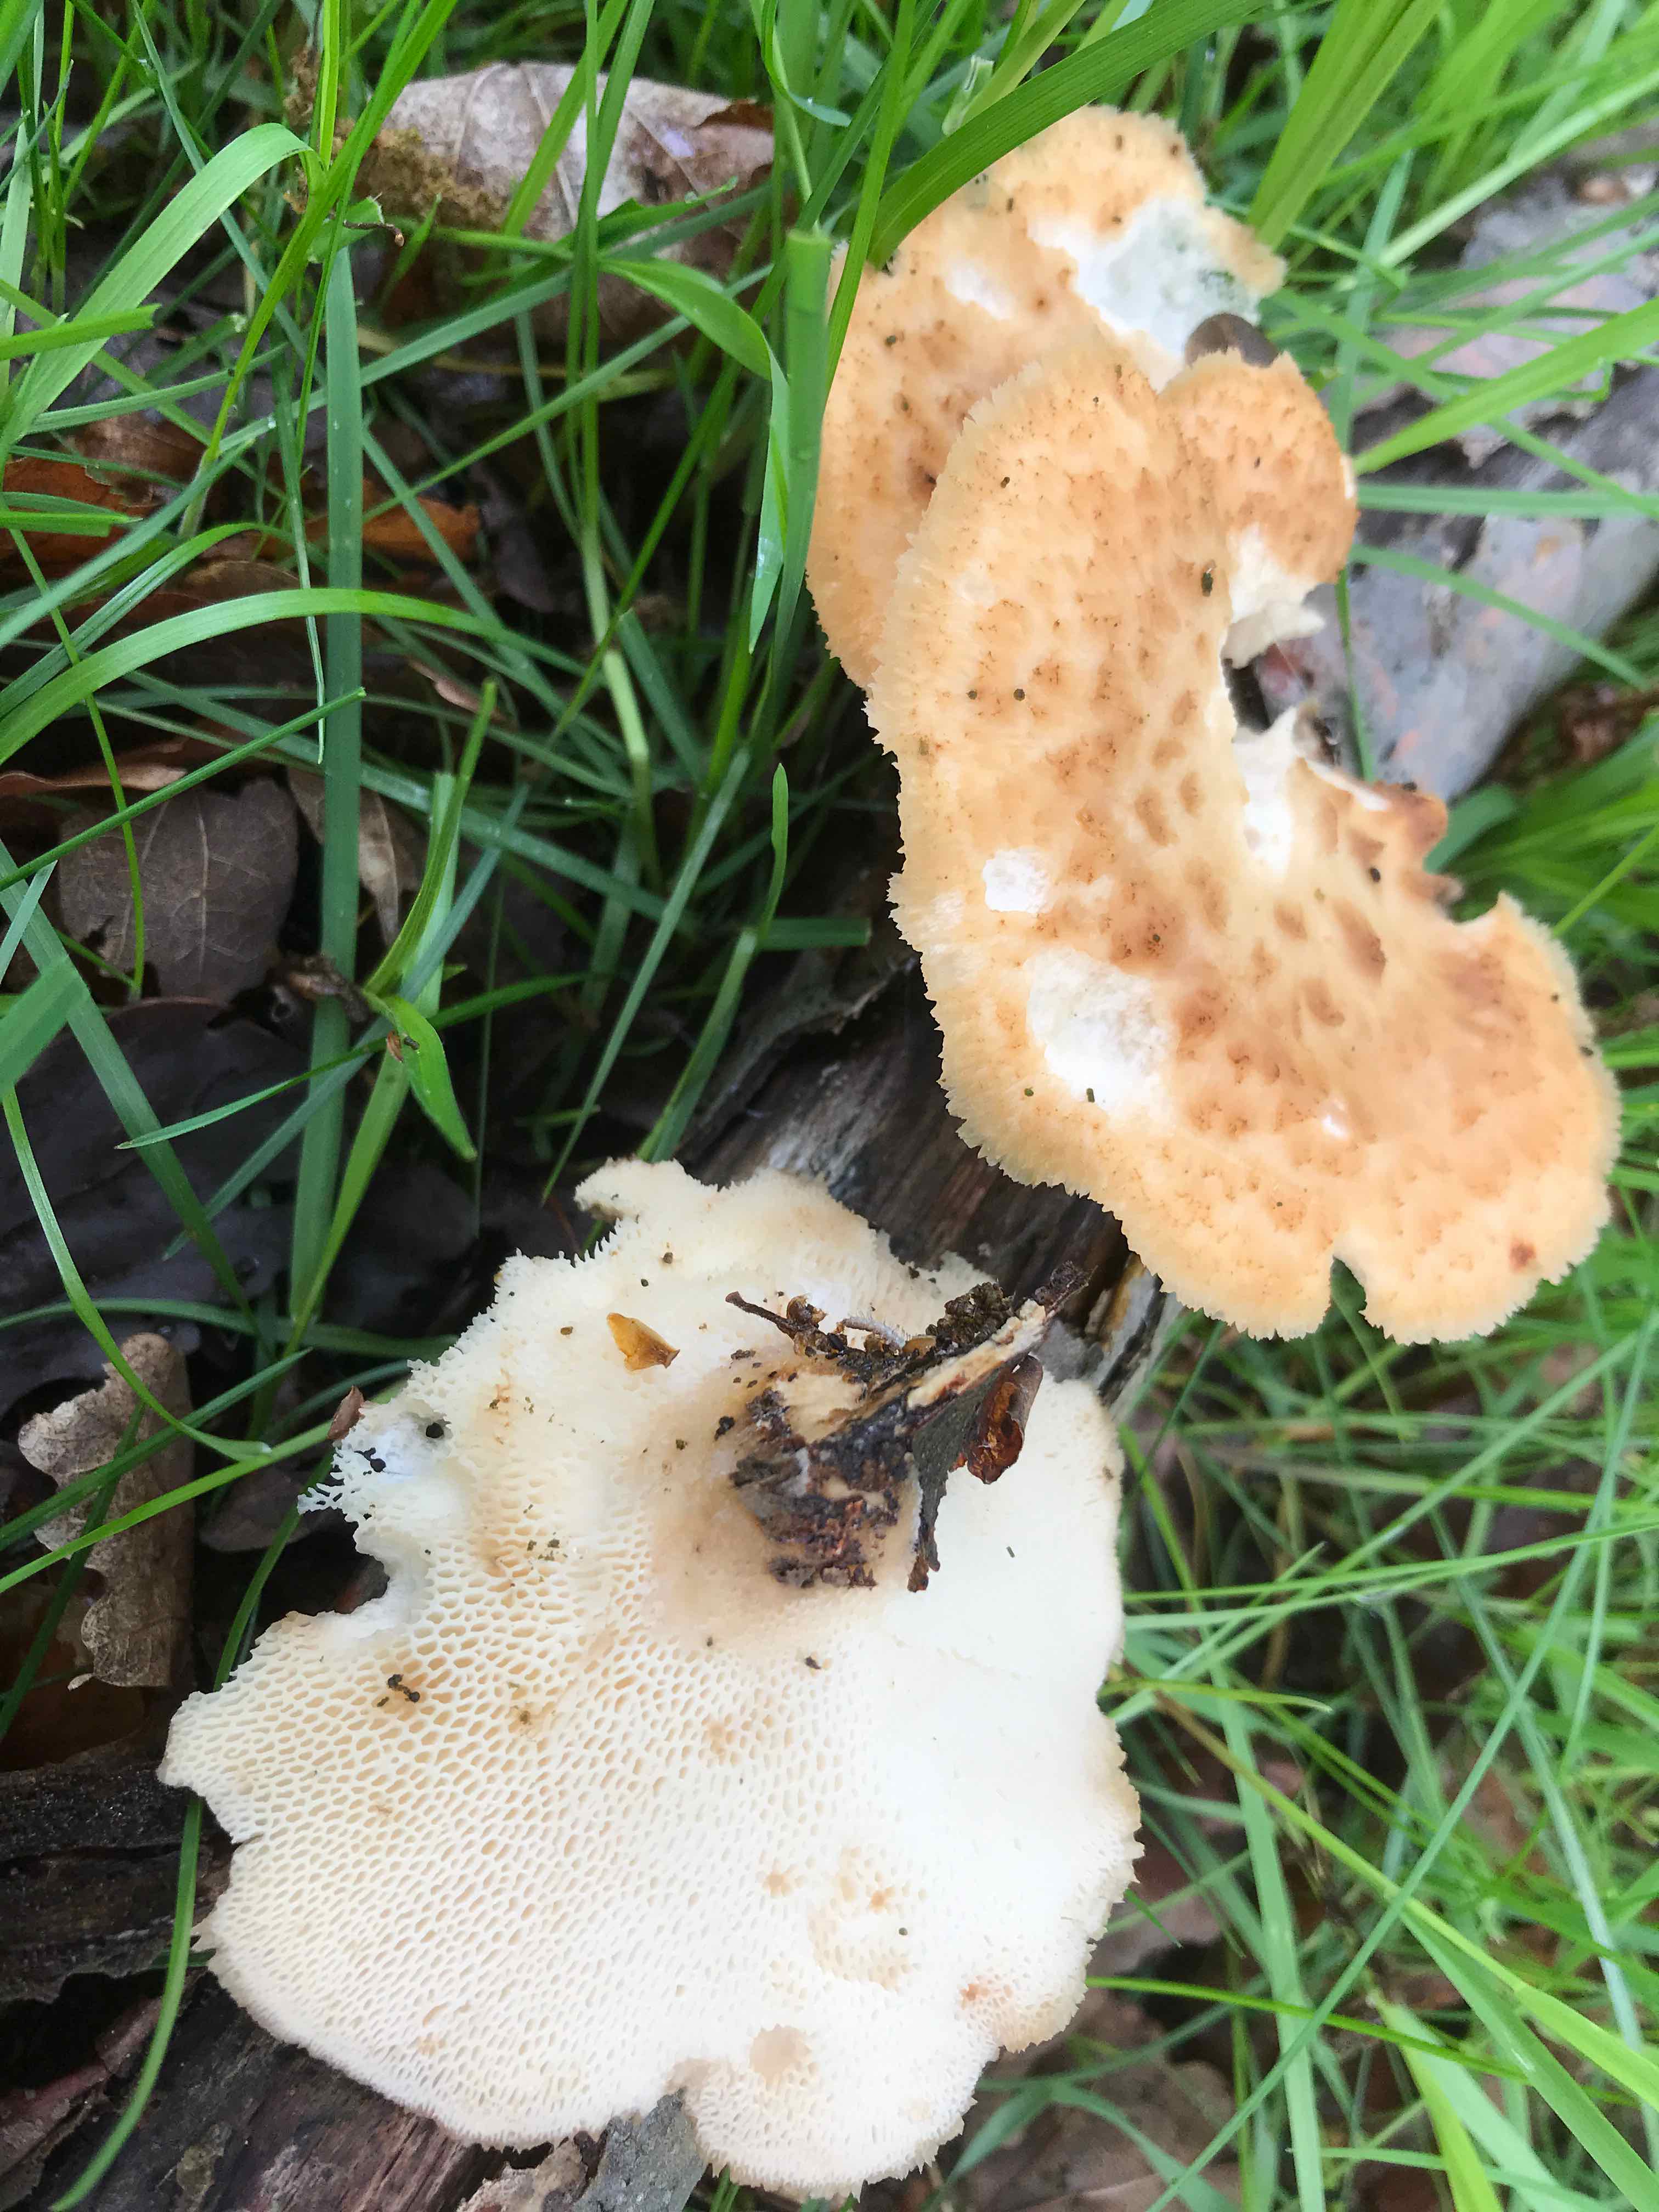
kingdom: Fungi
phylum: Basidiomycota
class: Agaricomycetes
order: Polyporales
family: Polyporaceae
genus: Polyporus
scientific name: Polyporus tuberaster
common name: knoldet stilkporesvamp
